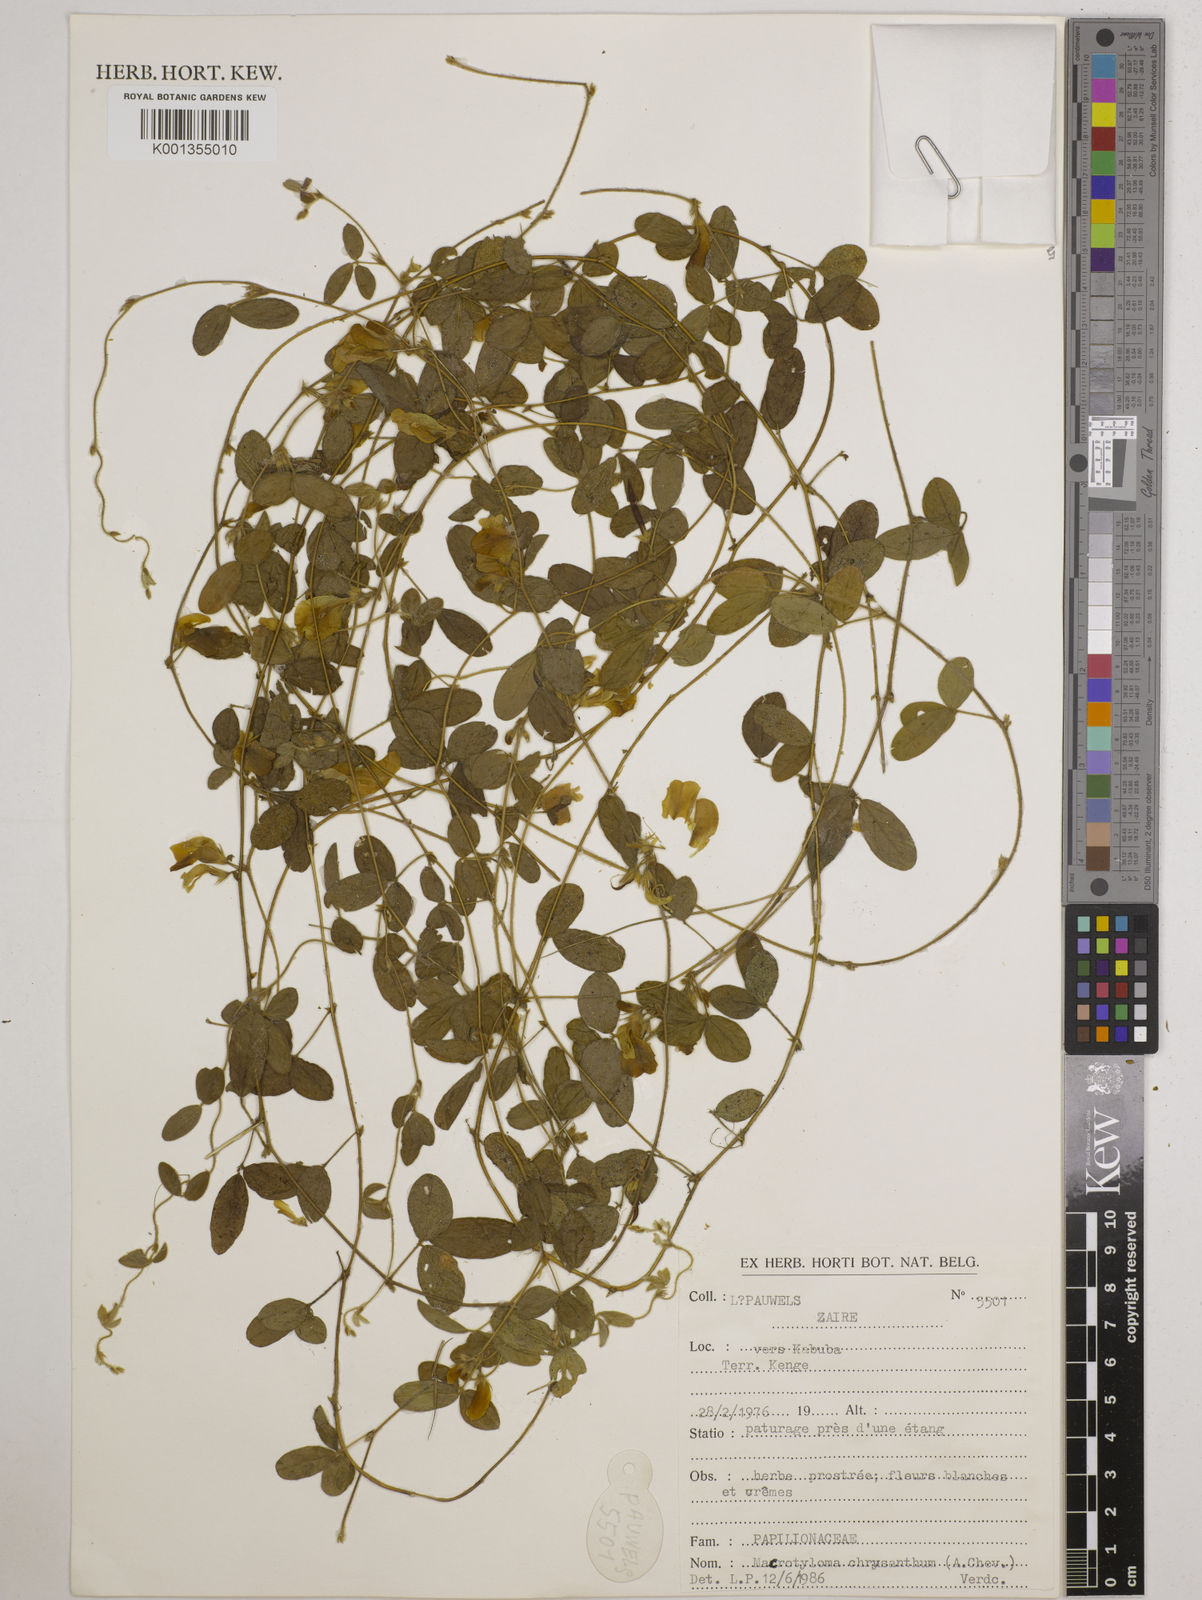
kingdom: Plantae
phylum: Tracheophyta
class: Magnoliopsida
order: Fabales
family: Fabaceae
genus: Macrotyloma
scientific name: Macrotyloma biflorum
